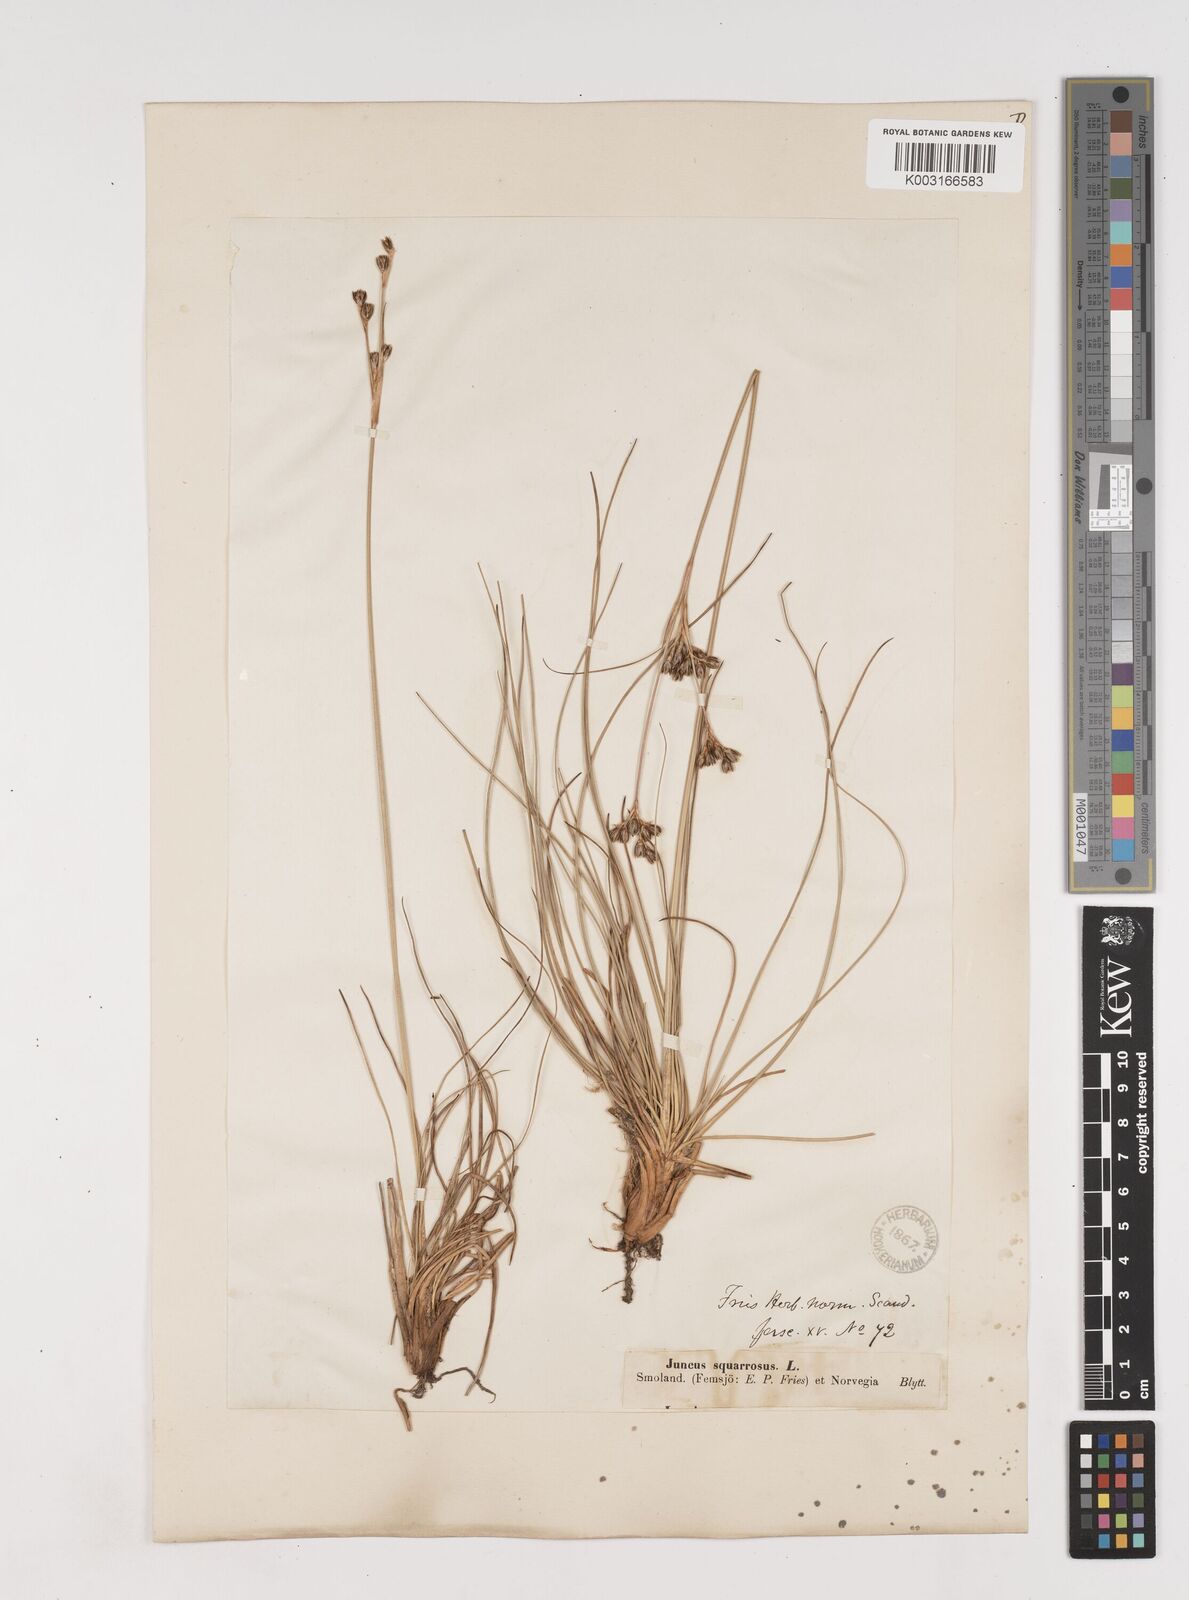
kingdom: Plantae
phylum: Tracheophyta
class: Liliopsida
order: Poales
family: Juncaceae
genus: Juncus
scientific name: Juncus squarrosus
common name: Heath rush
